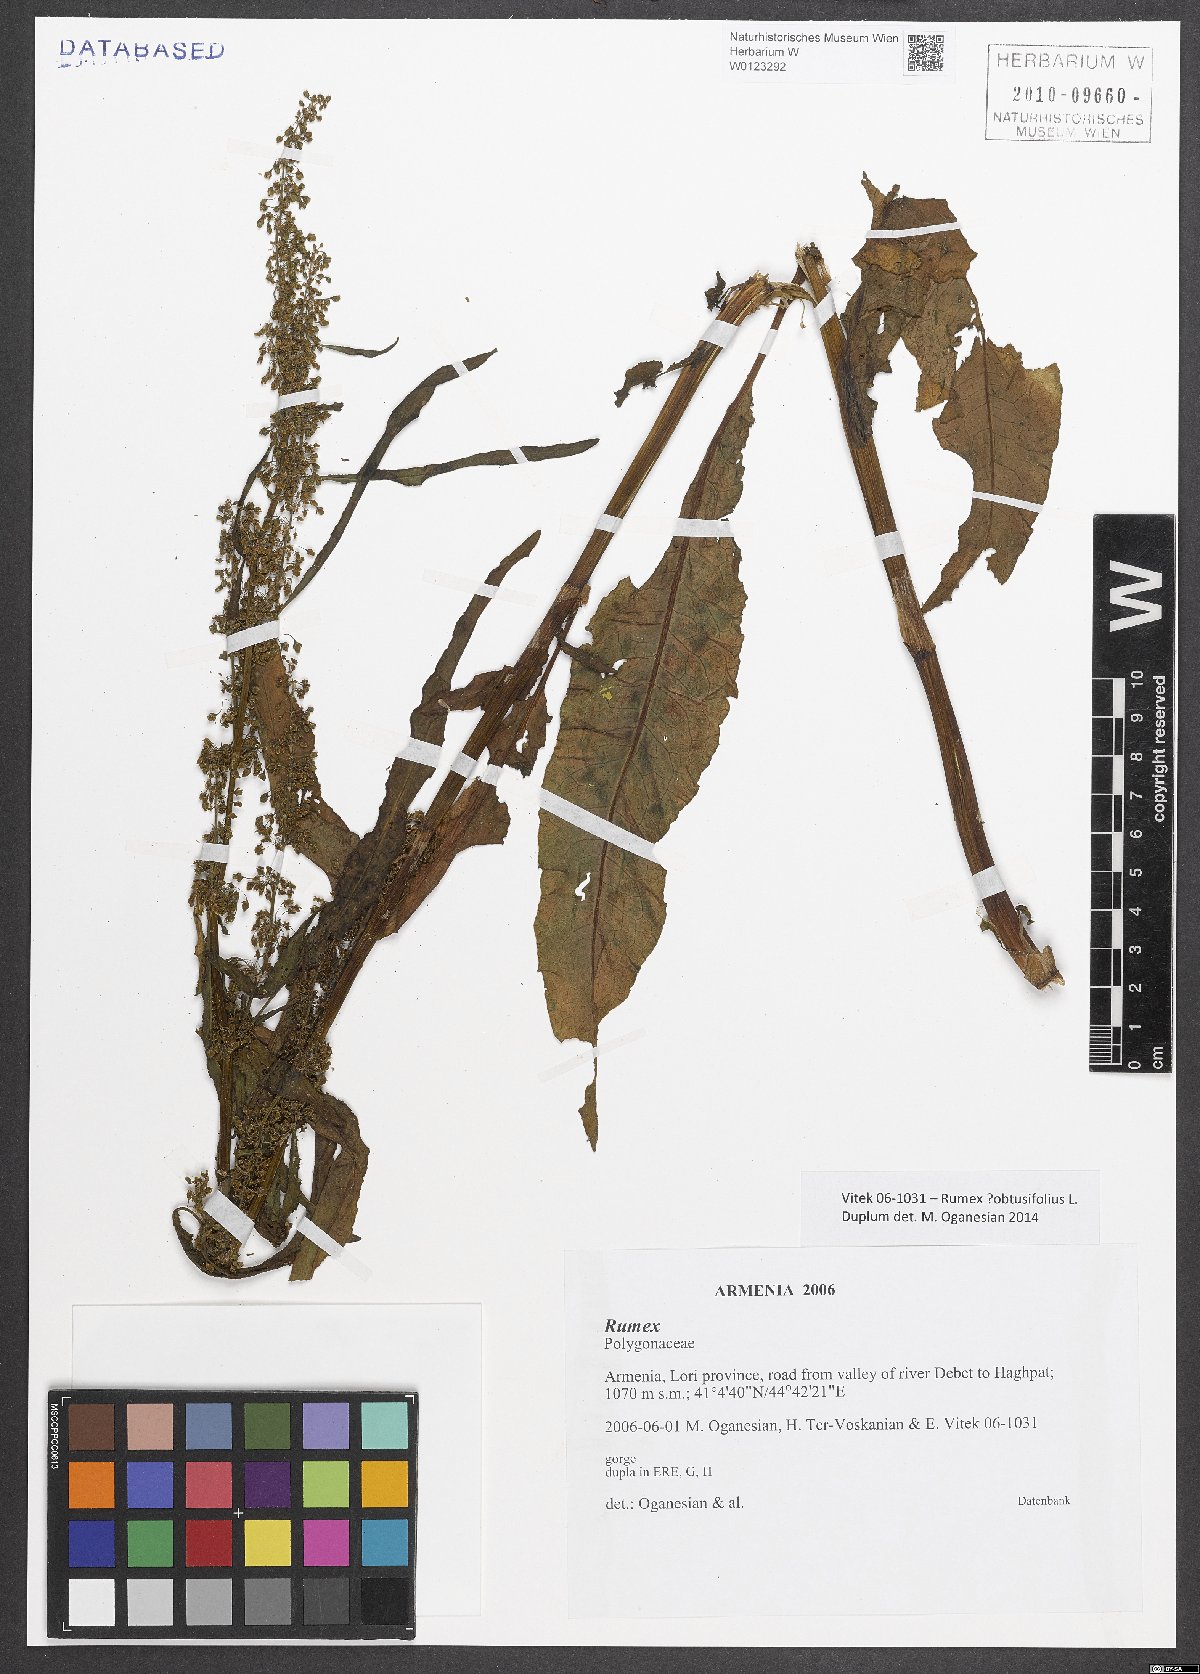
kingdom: Plantae
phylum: Tracheophyta
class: Magnoliopsida
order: Caryophyllales
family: Polygonaceae
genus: Rumex
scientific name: Rumex obtusifolius
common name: Bitter dock
